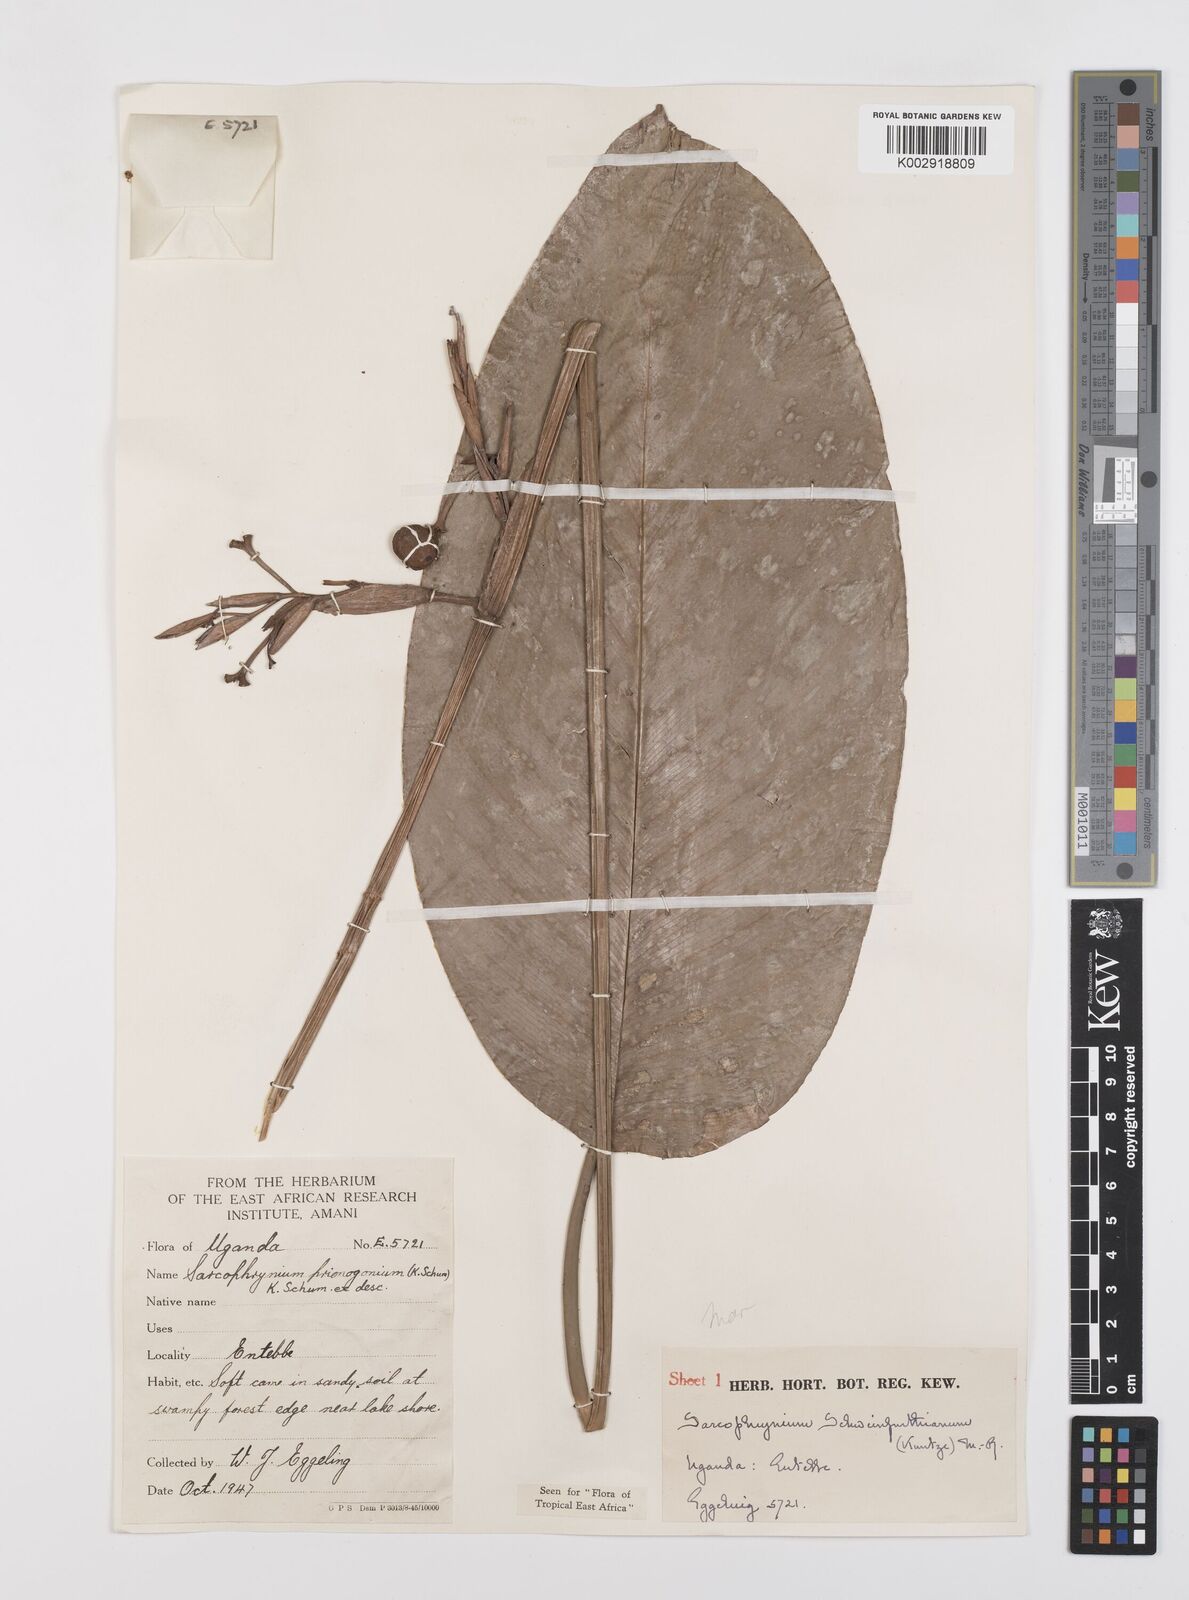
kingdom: Plantae
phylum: Tracheophyta
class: Liliopsida
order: Zingiberales
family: Marantaceae
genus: Sarcophrynium
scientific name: Sarcophrynium schweinfurthianum
